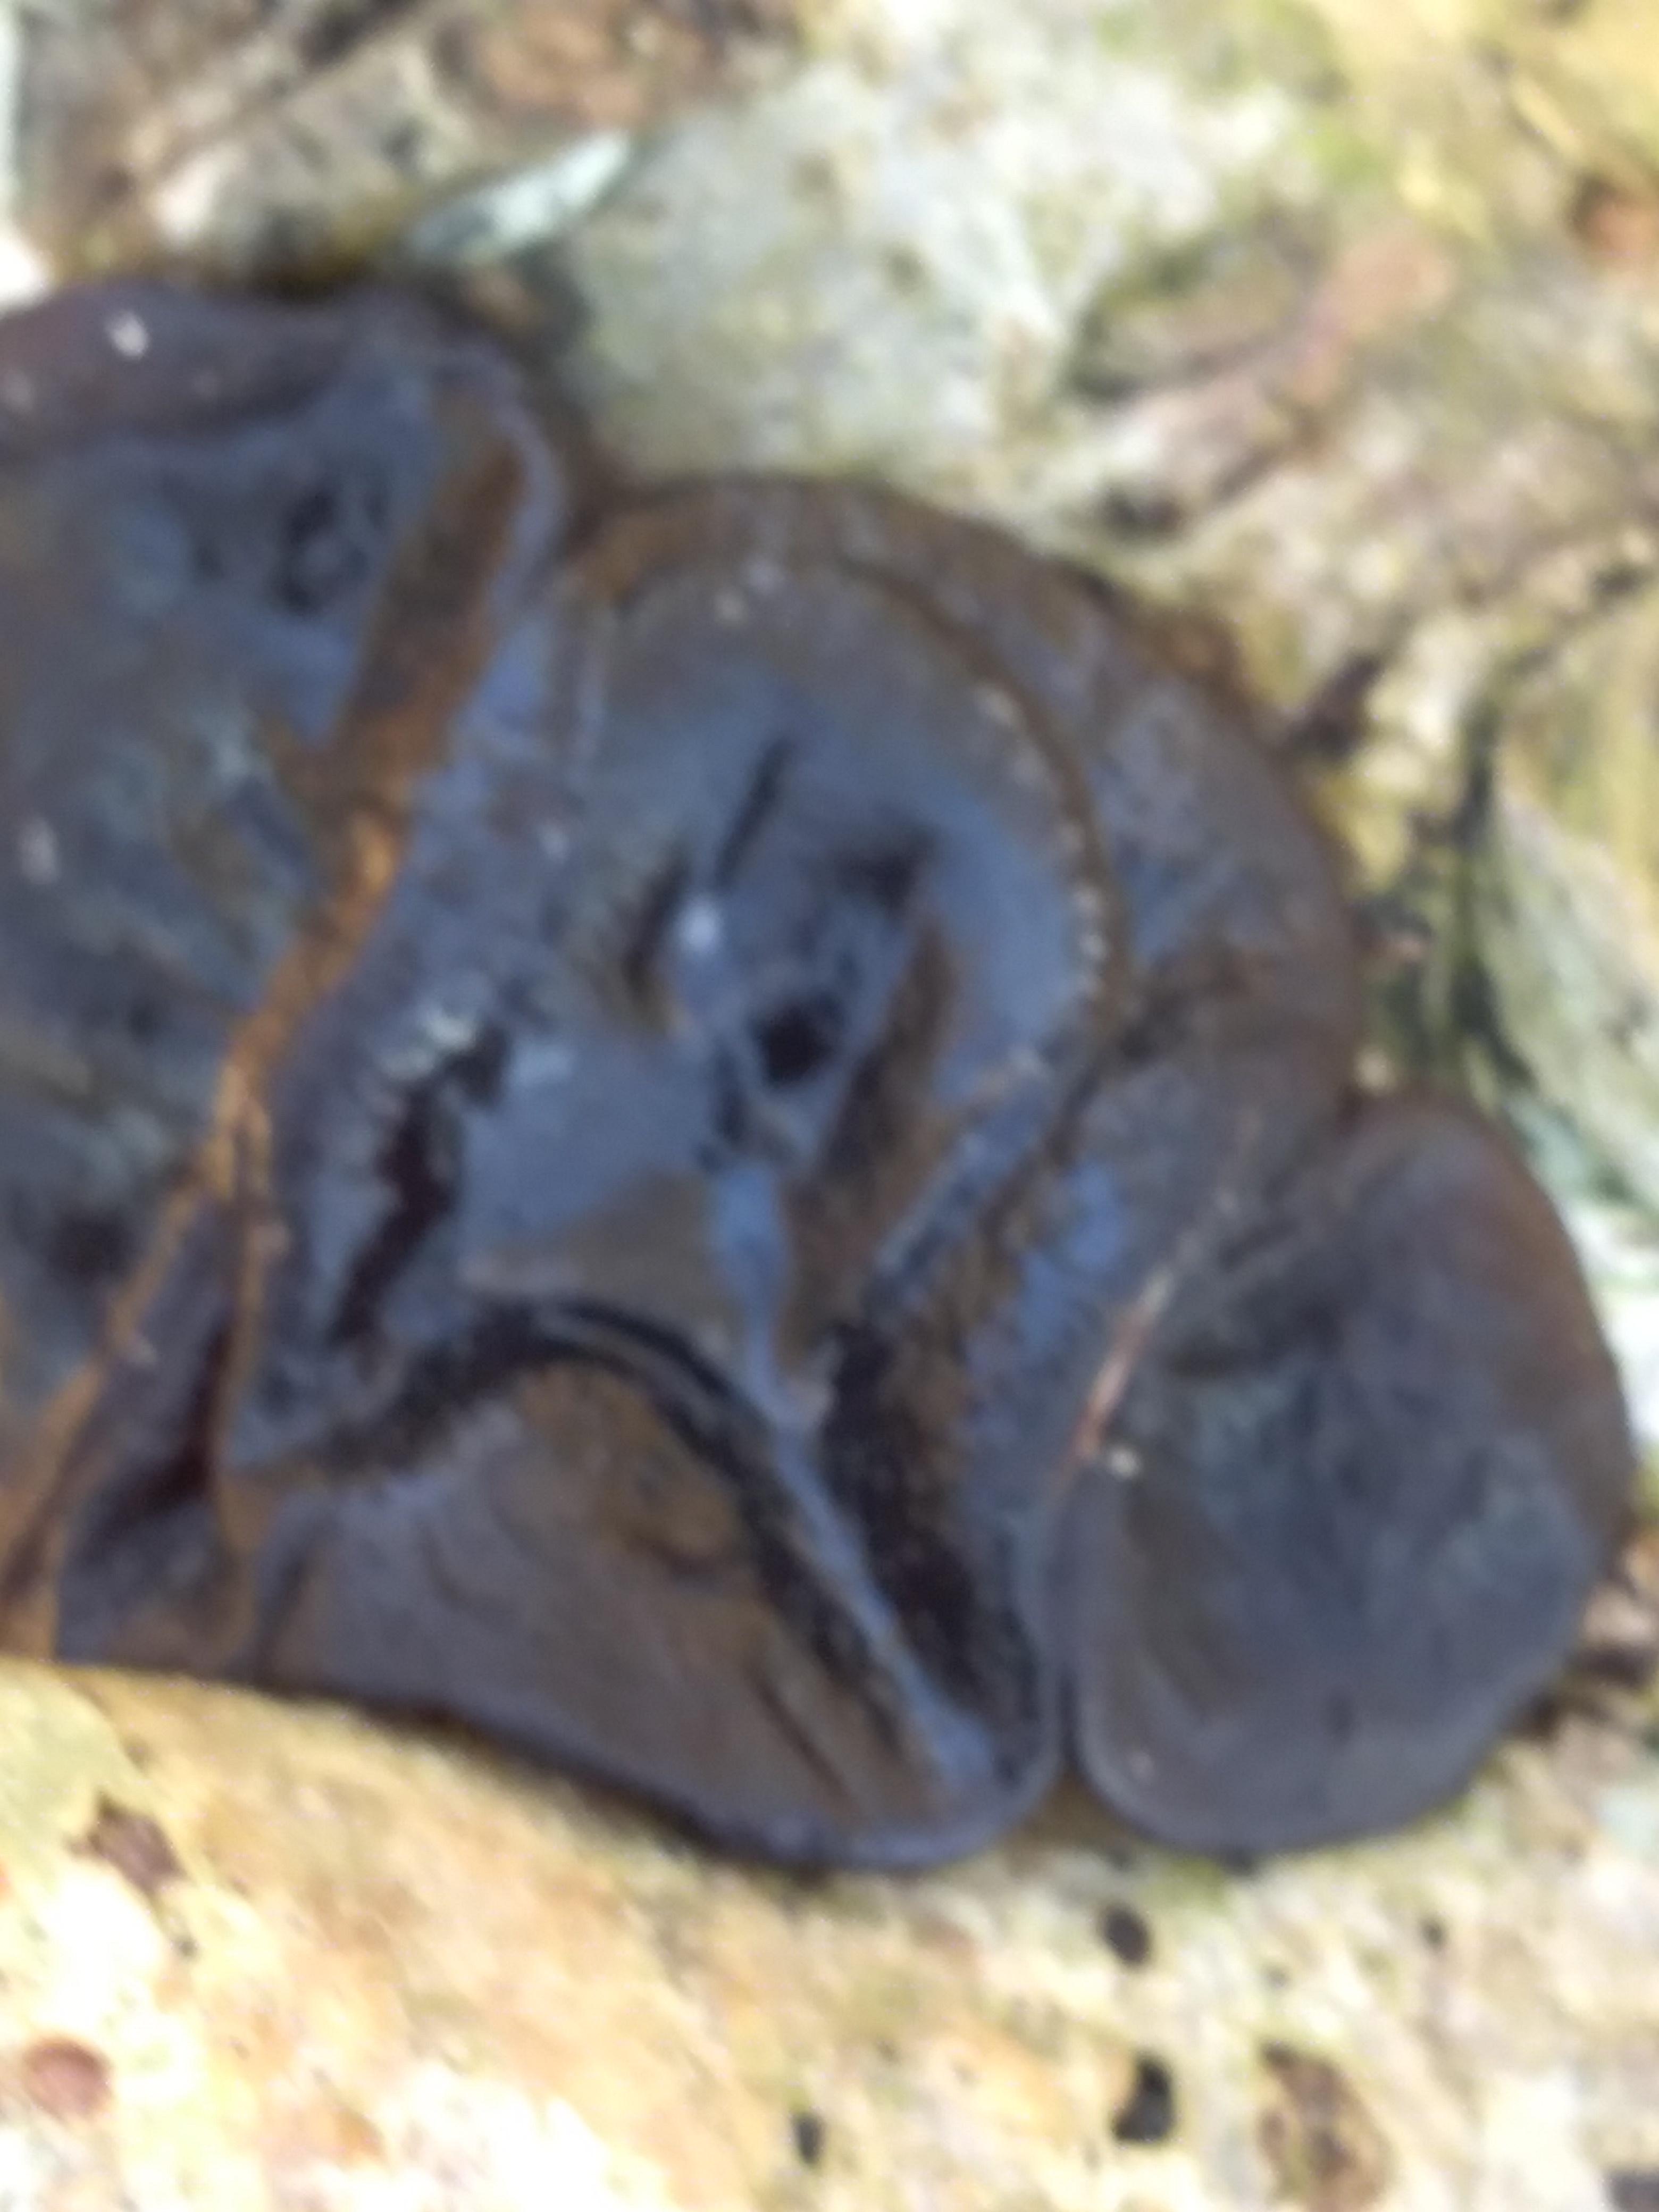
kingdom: Fungi
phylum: Basidiomycota
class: Agaricomycetes
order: Auriculariales
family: Auriculariaceae
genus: Exidia
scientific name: Exidia glandulosa
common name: ege-bævretop
